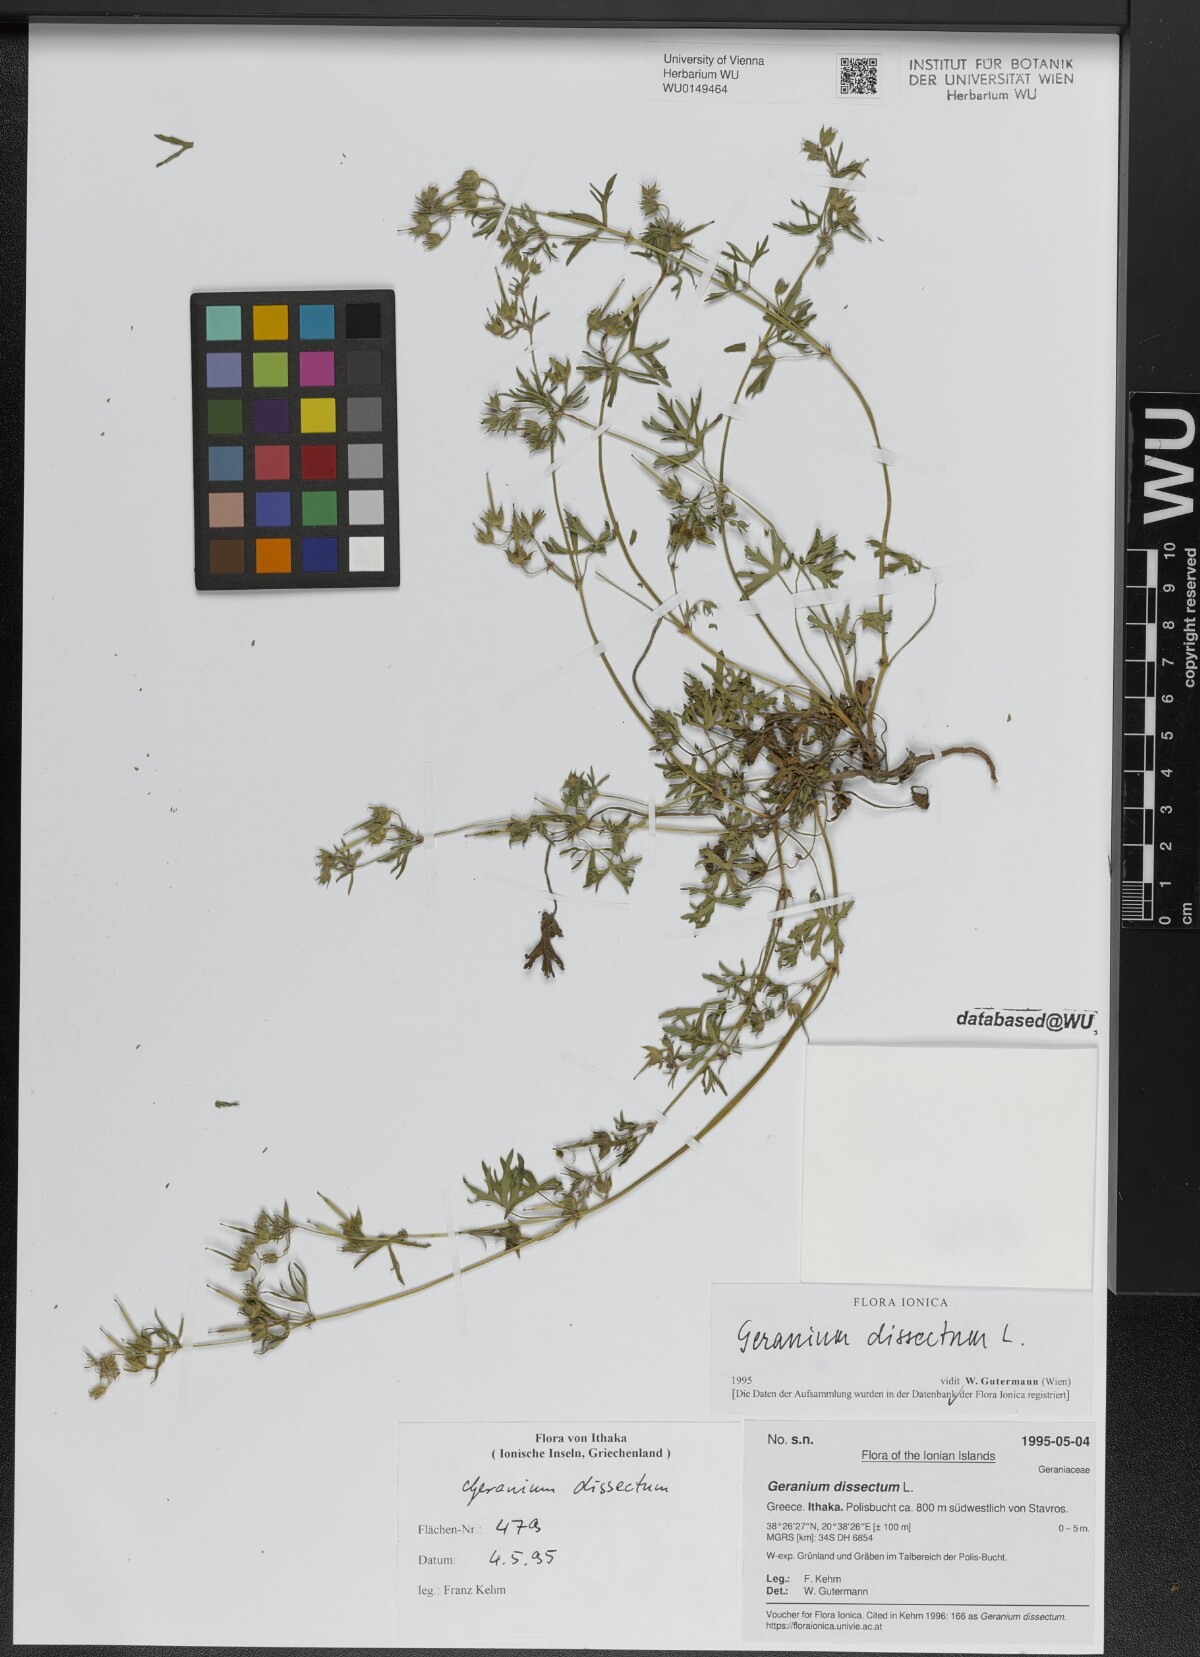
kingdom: Plantae
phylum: Tracheophyta
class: Magnoliopsida
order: Geraniales
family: Geraniaceae
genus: Geranium
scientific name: Geranium dissectum
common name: Cut-leaved crane's-bill
